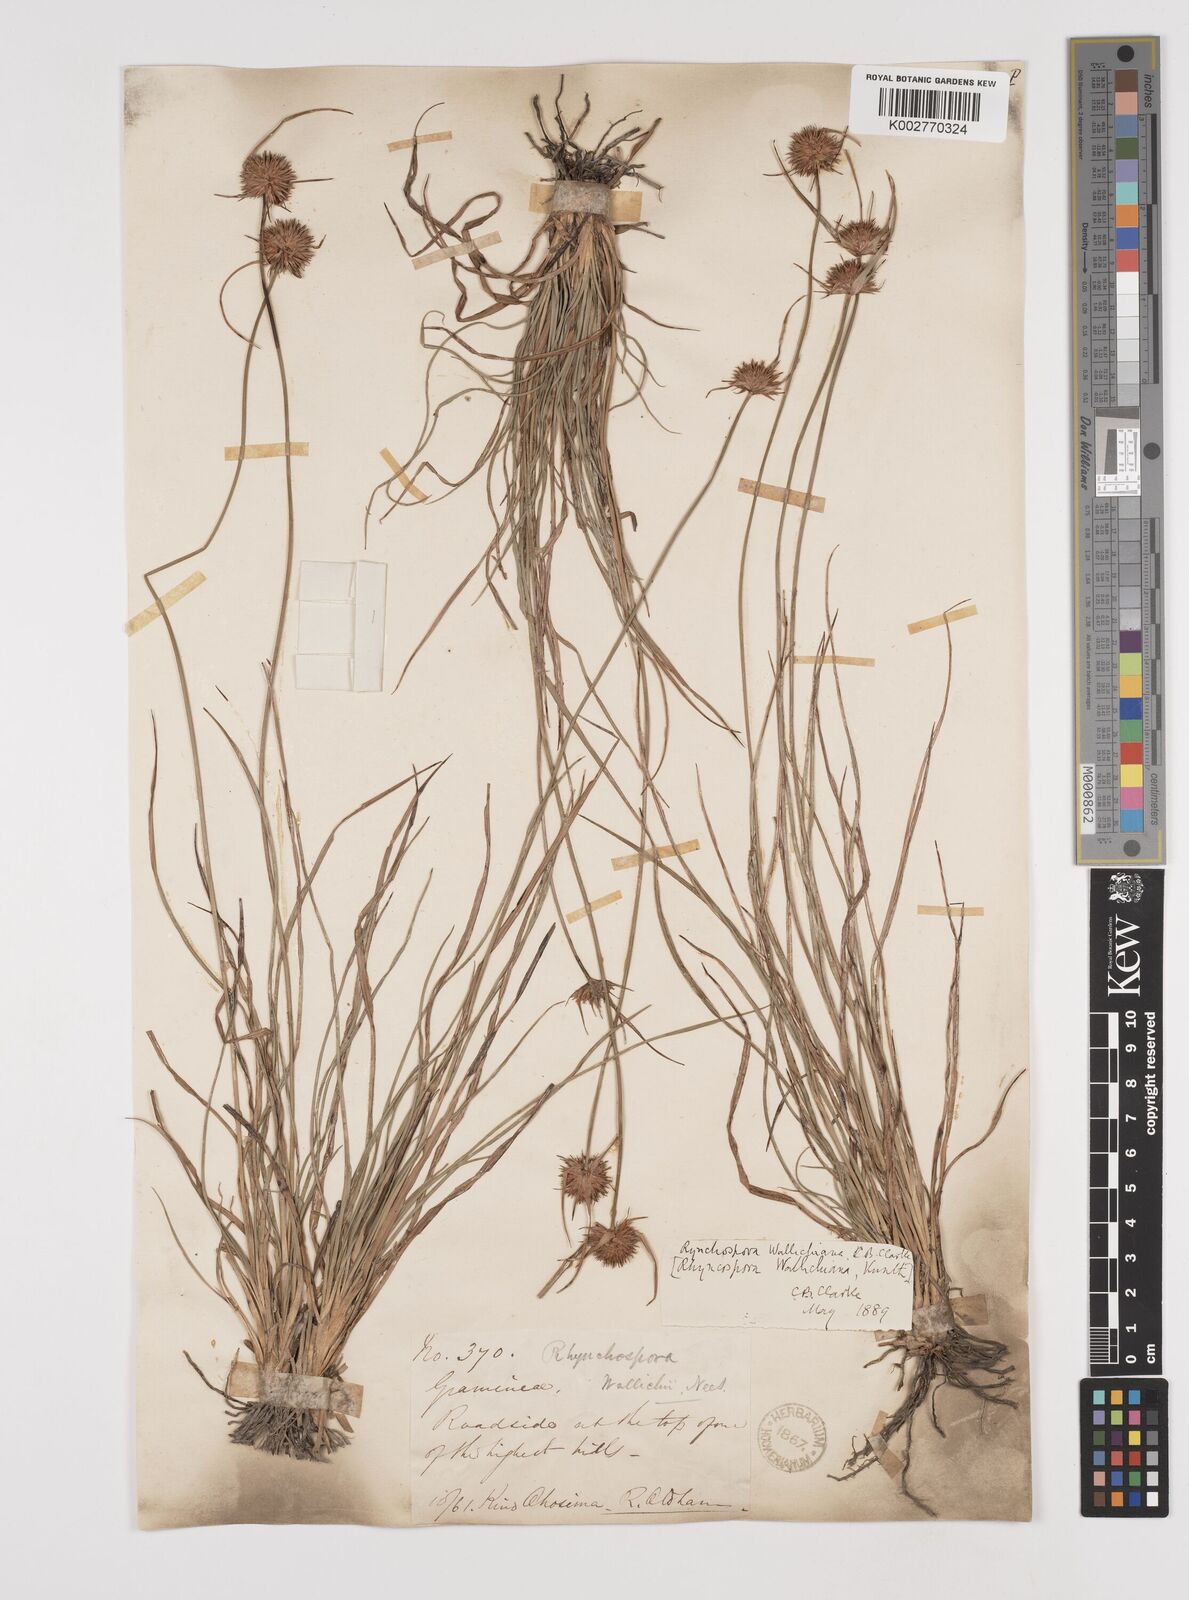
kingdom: Plantae
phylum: Tracheophyta
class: Liliopsida
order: Poales
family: Cyperaceae
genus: Rhynchospora
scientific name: Rhynchospora rubra
